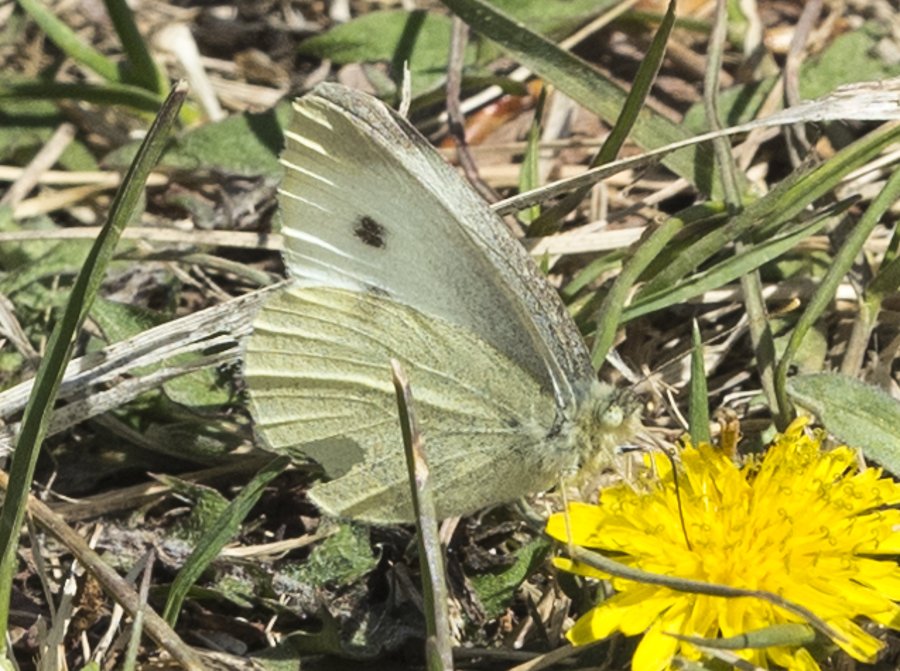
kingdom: Animalia
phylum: Arthropoda
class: Insecta
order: Lepidoptera
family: Pieridae
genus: Pieris
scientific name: Pieris rapae
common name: Cabbage White
